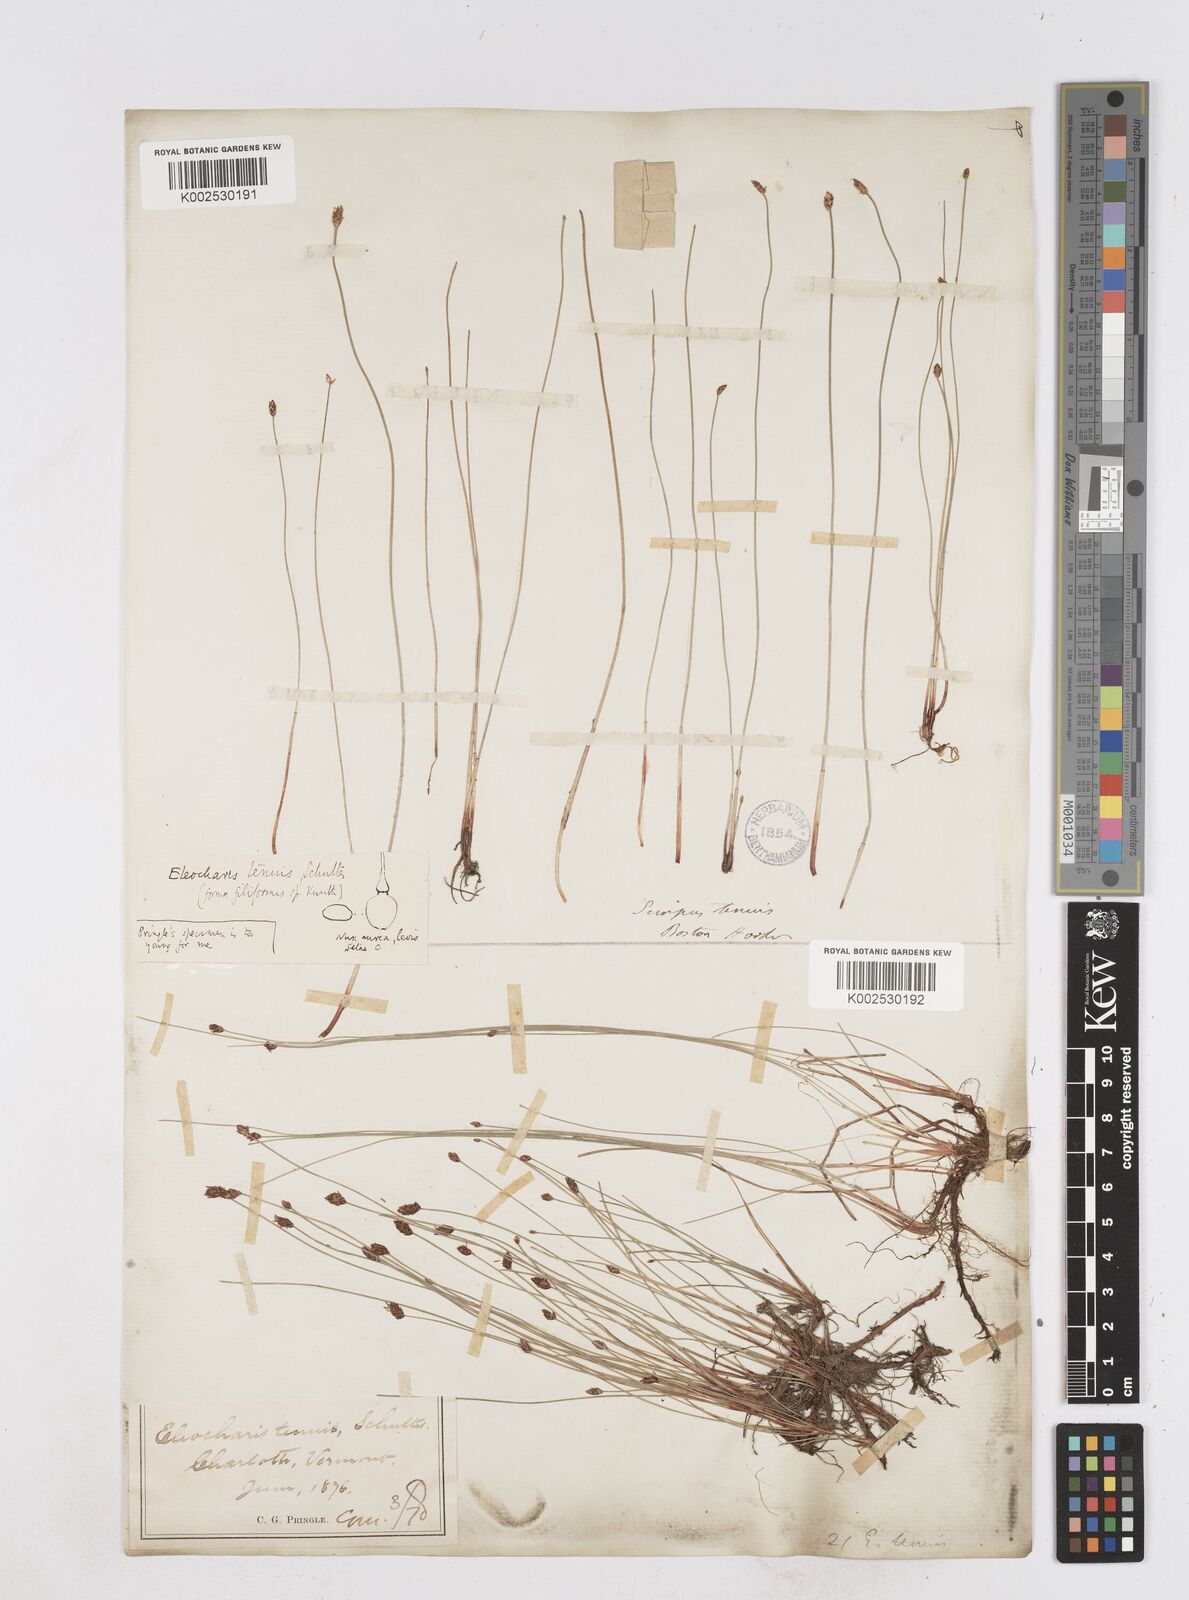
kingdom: Plantae
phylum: Tracheophyta
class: Liliopsida
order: Poales
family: Cyperaceae
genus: Eleocharis
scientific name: Eleocharis tenuis
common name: Dog's hair
